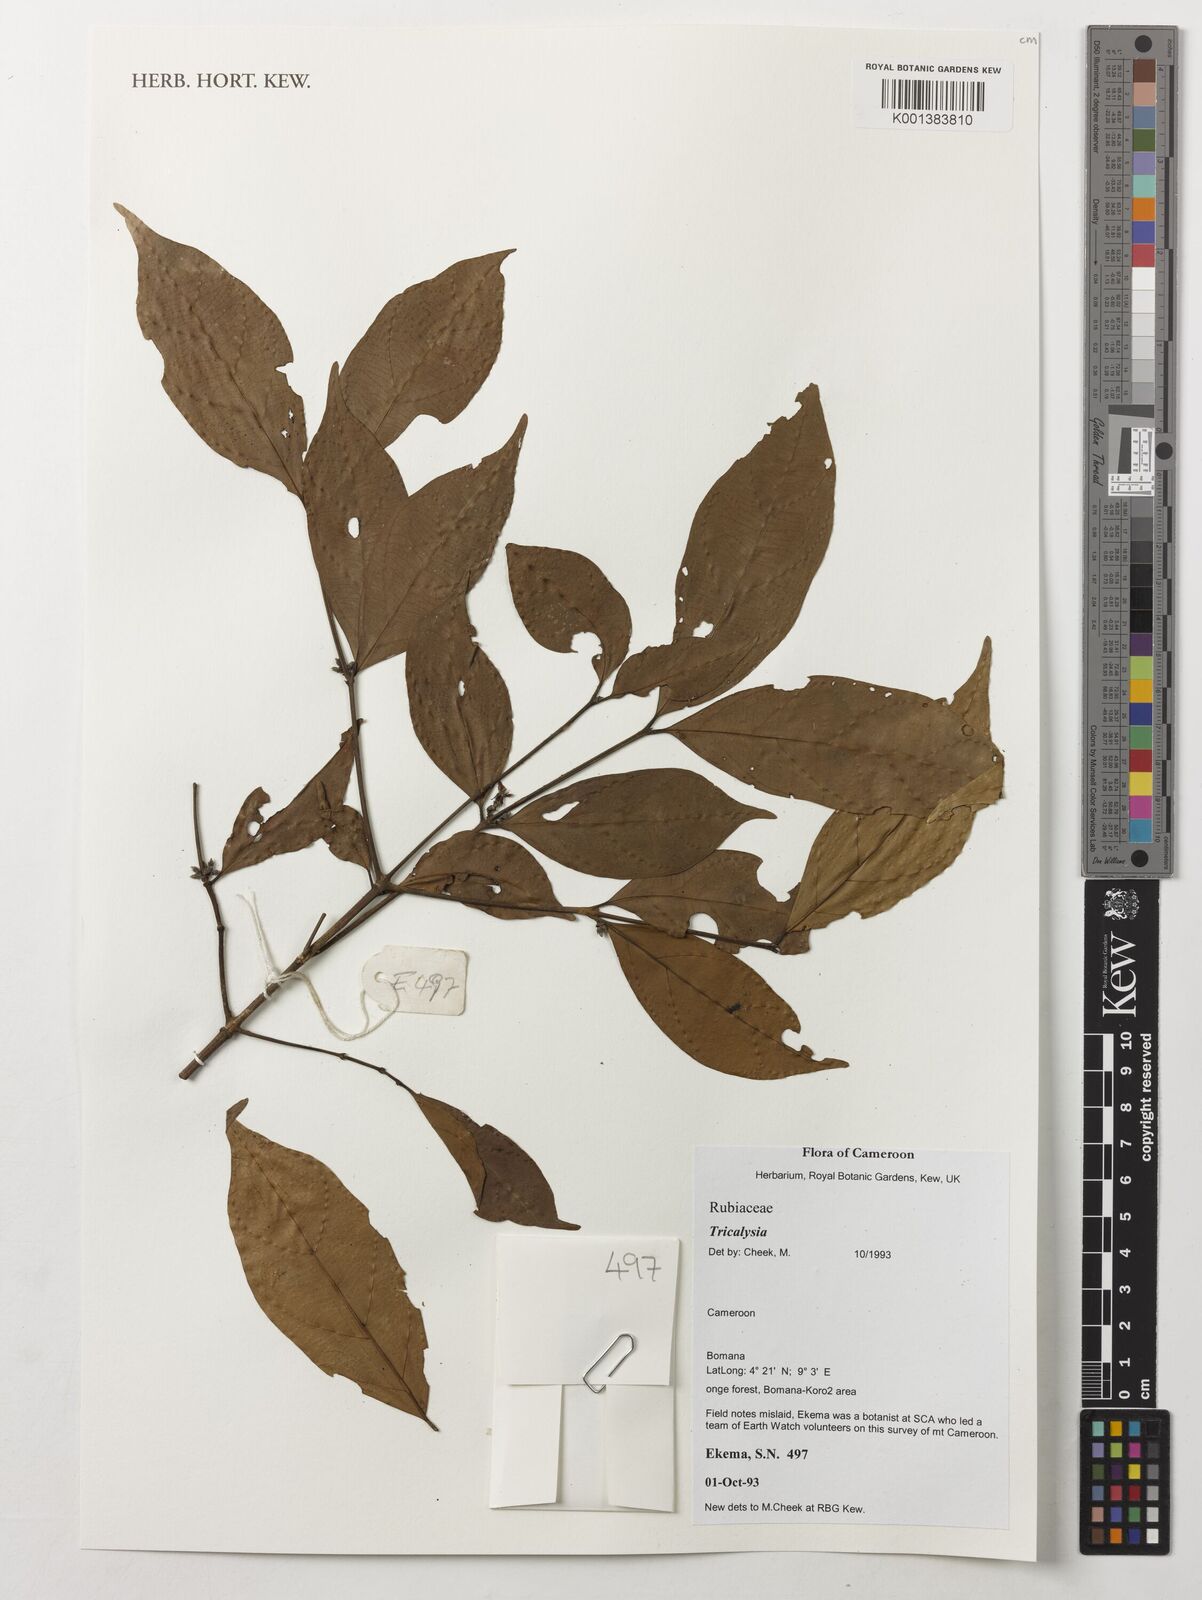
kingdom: Plantae
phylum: Tracheophyta
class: Magnoliopsida
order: Gentianales
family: Rubiaceae
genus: Tricalysia
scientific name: Tricalysia
